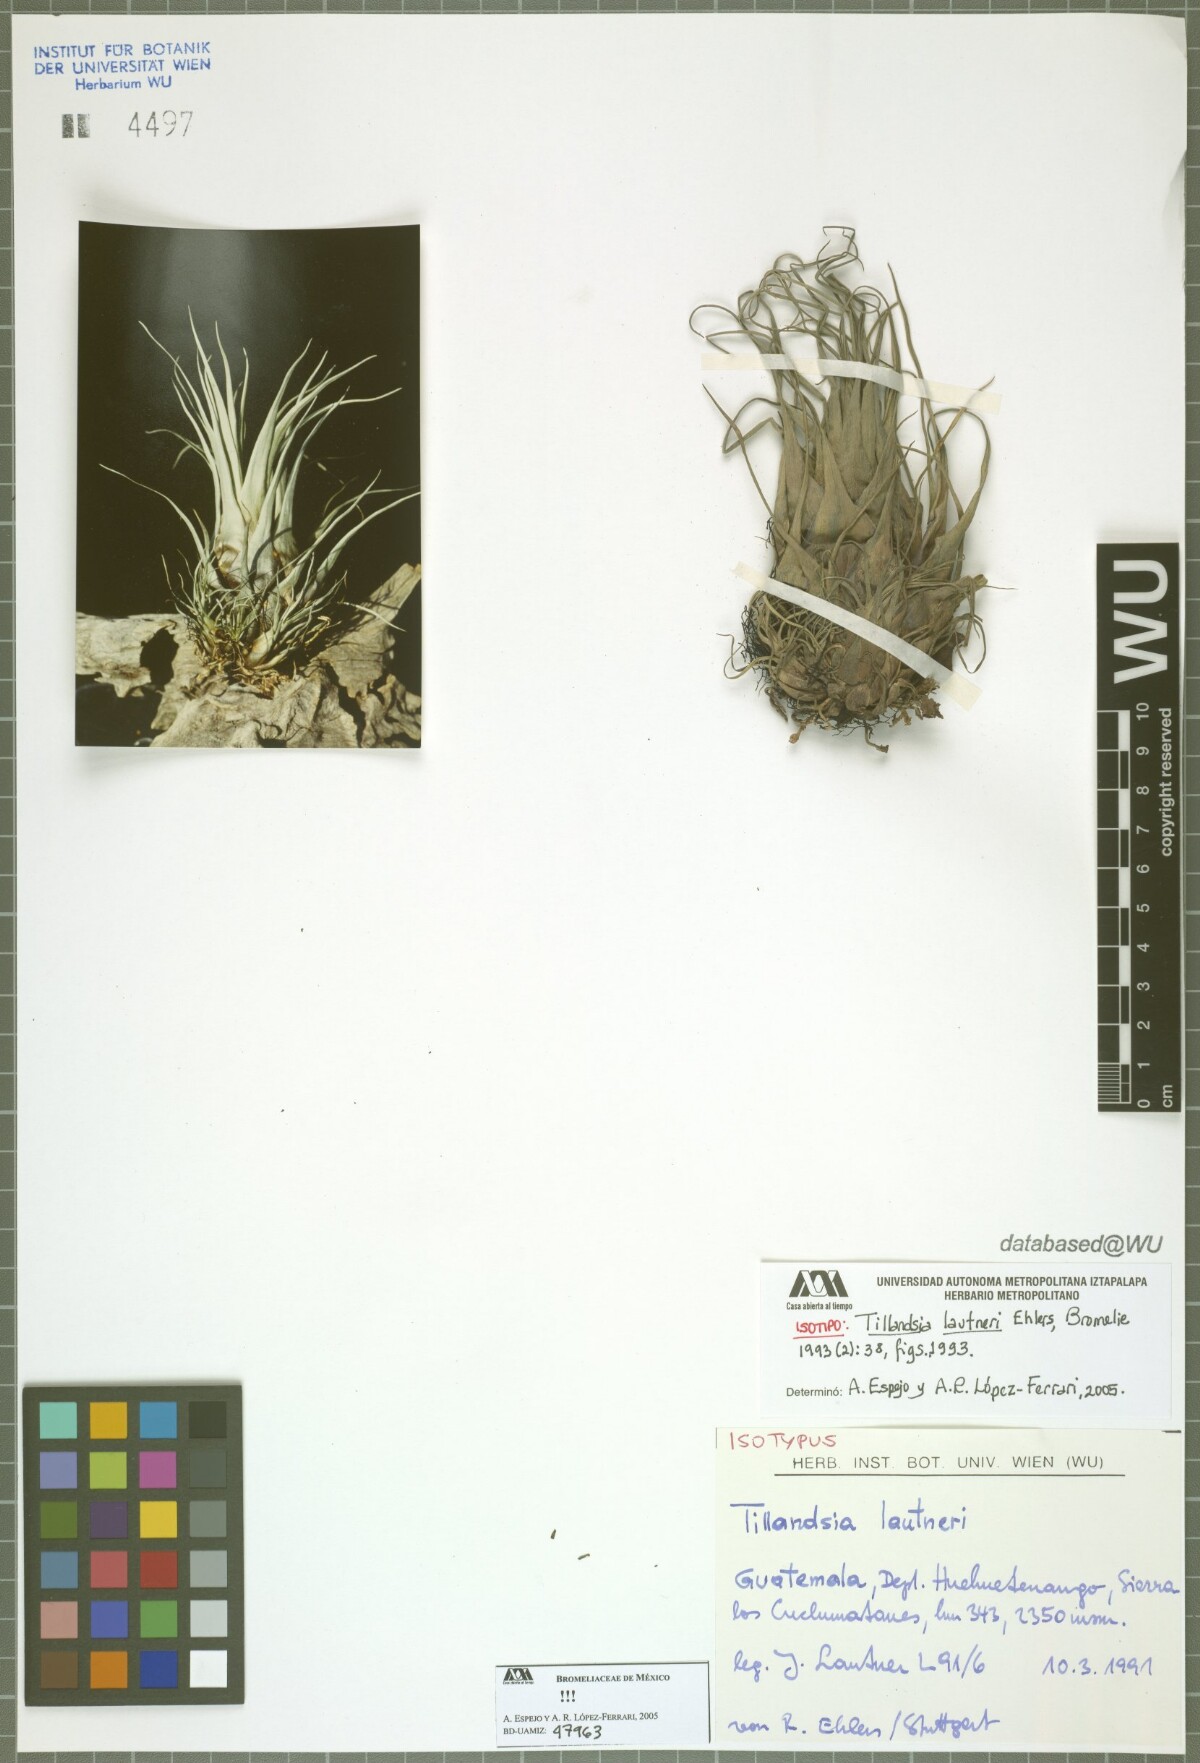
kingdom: Plantae
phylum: Tracheophyta
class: Liliopsida
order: Poales
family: Bromeliaceae
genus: Tillandsia
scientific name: Tillandsia lautneri
